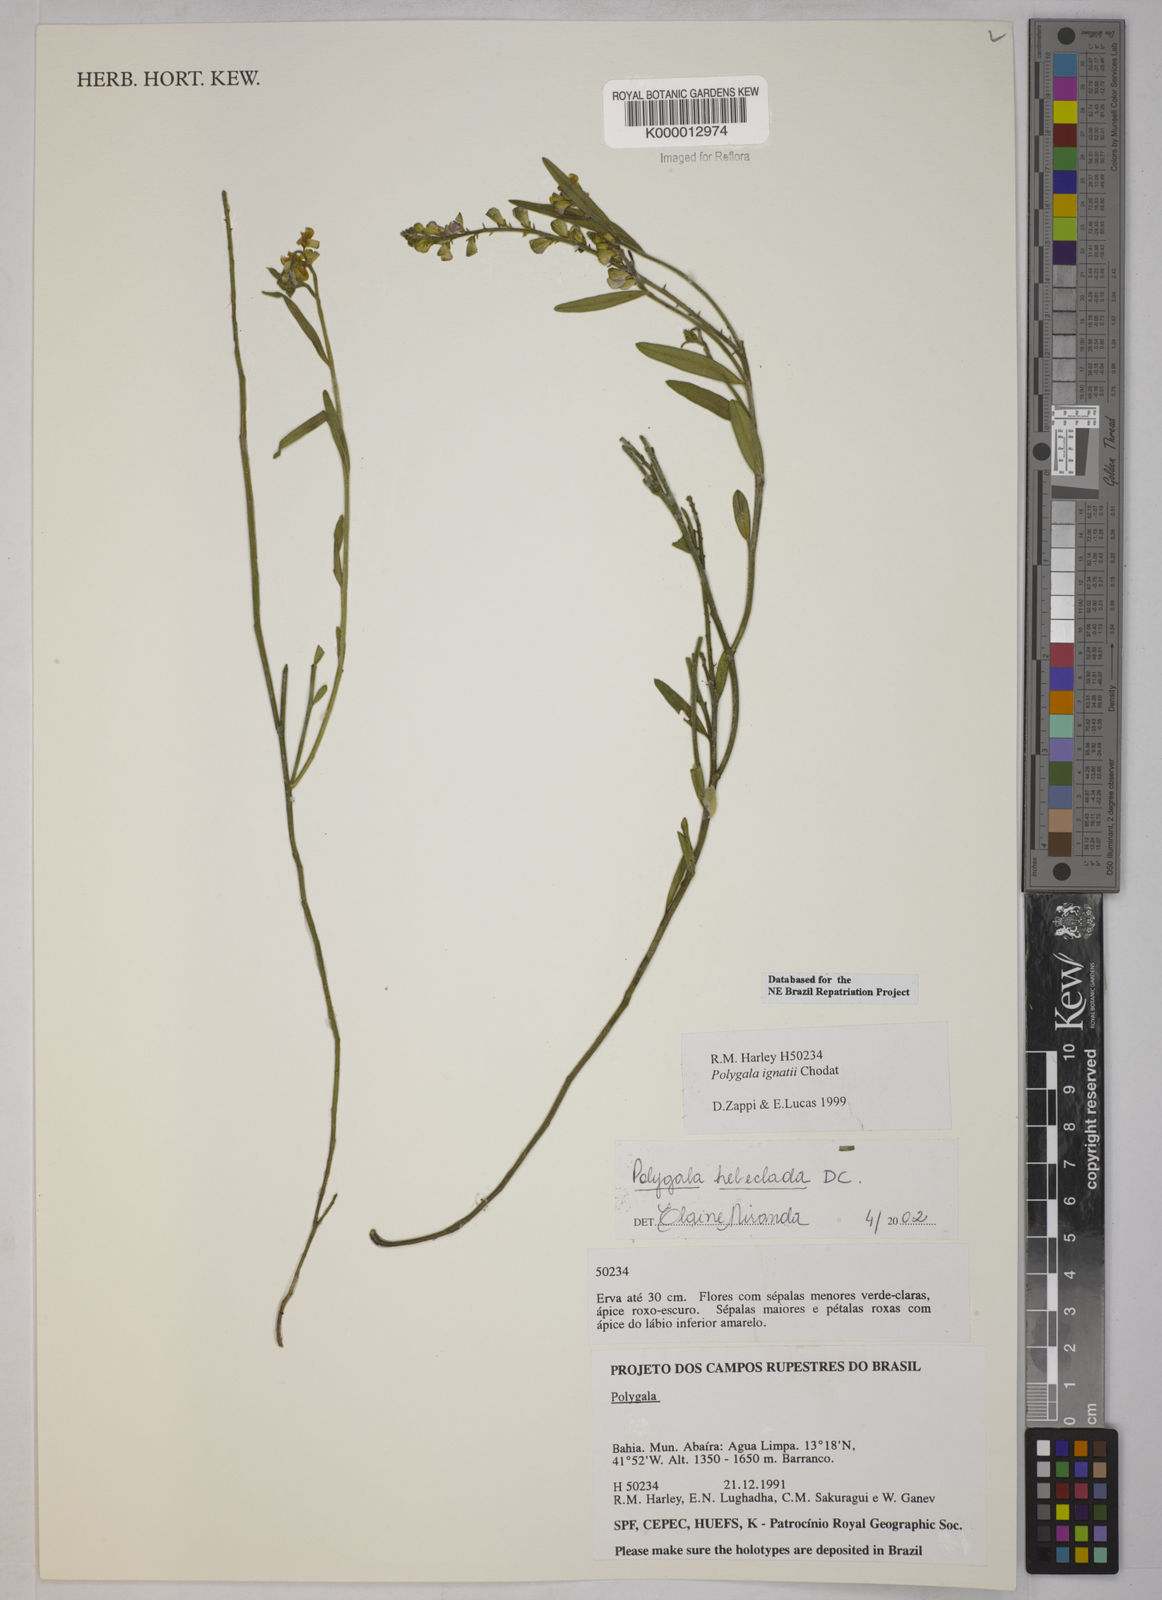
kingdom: Plantae
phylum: Tracheophyta
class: Magnoliopsida
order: Fabales
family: Polygalaceae
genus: Asemeia
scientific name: Asemeia hebeclada
